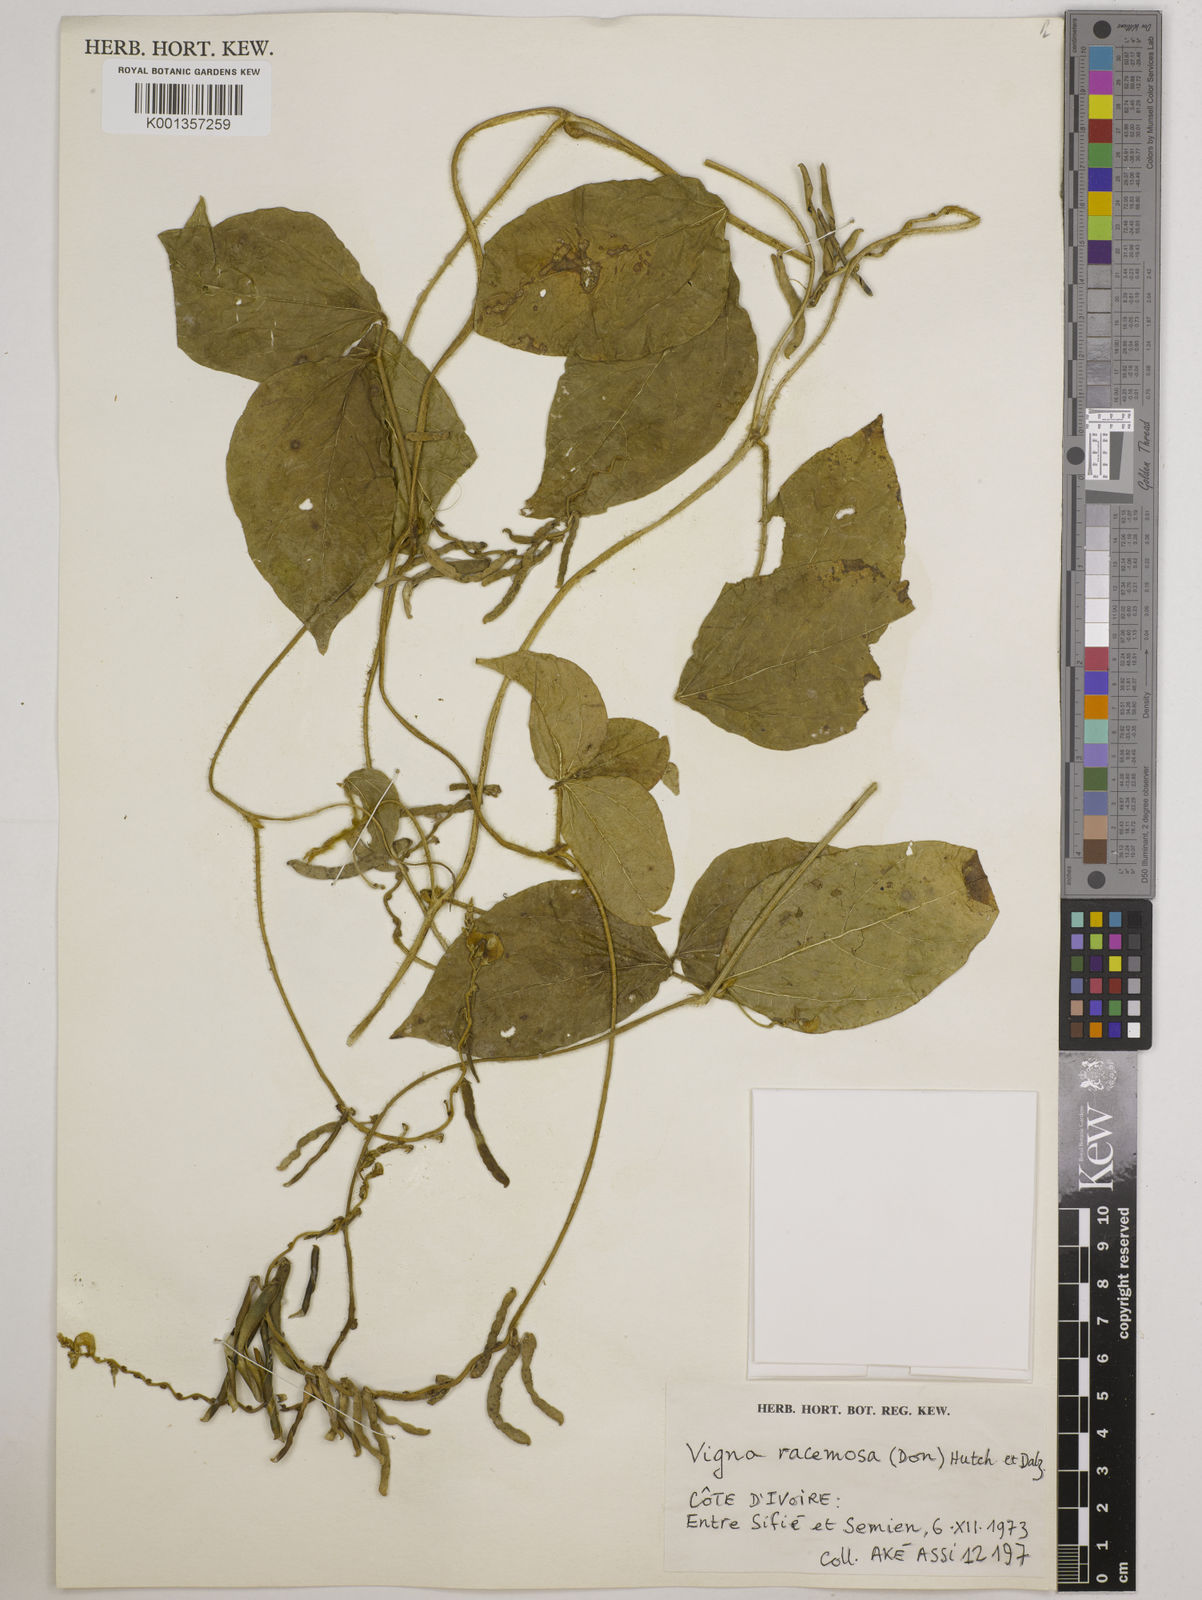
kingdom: Plantae
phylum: Tracheophyta
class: Magnoliopsida
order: Fabales
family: Fabaceae
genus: Vigna
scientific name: Vigna racemosa
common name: Beans not eaten
